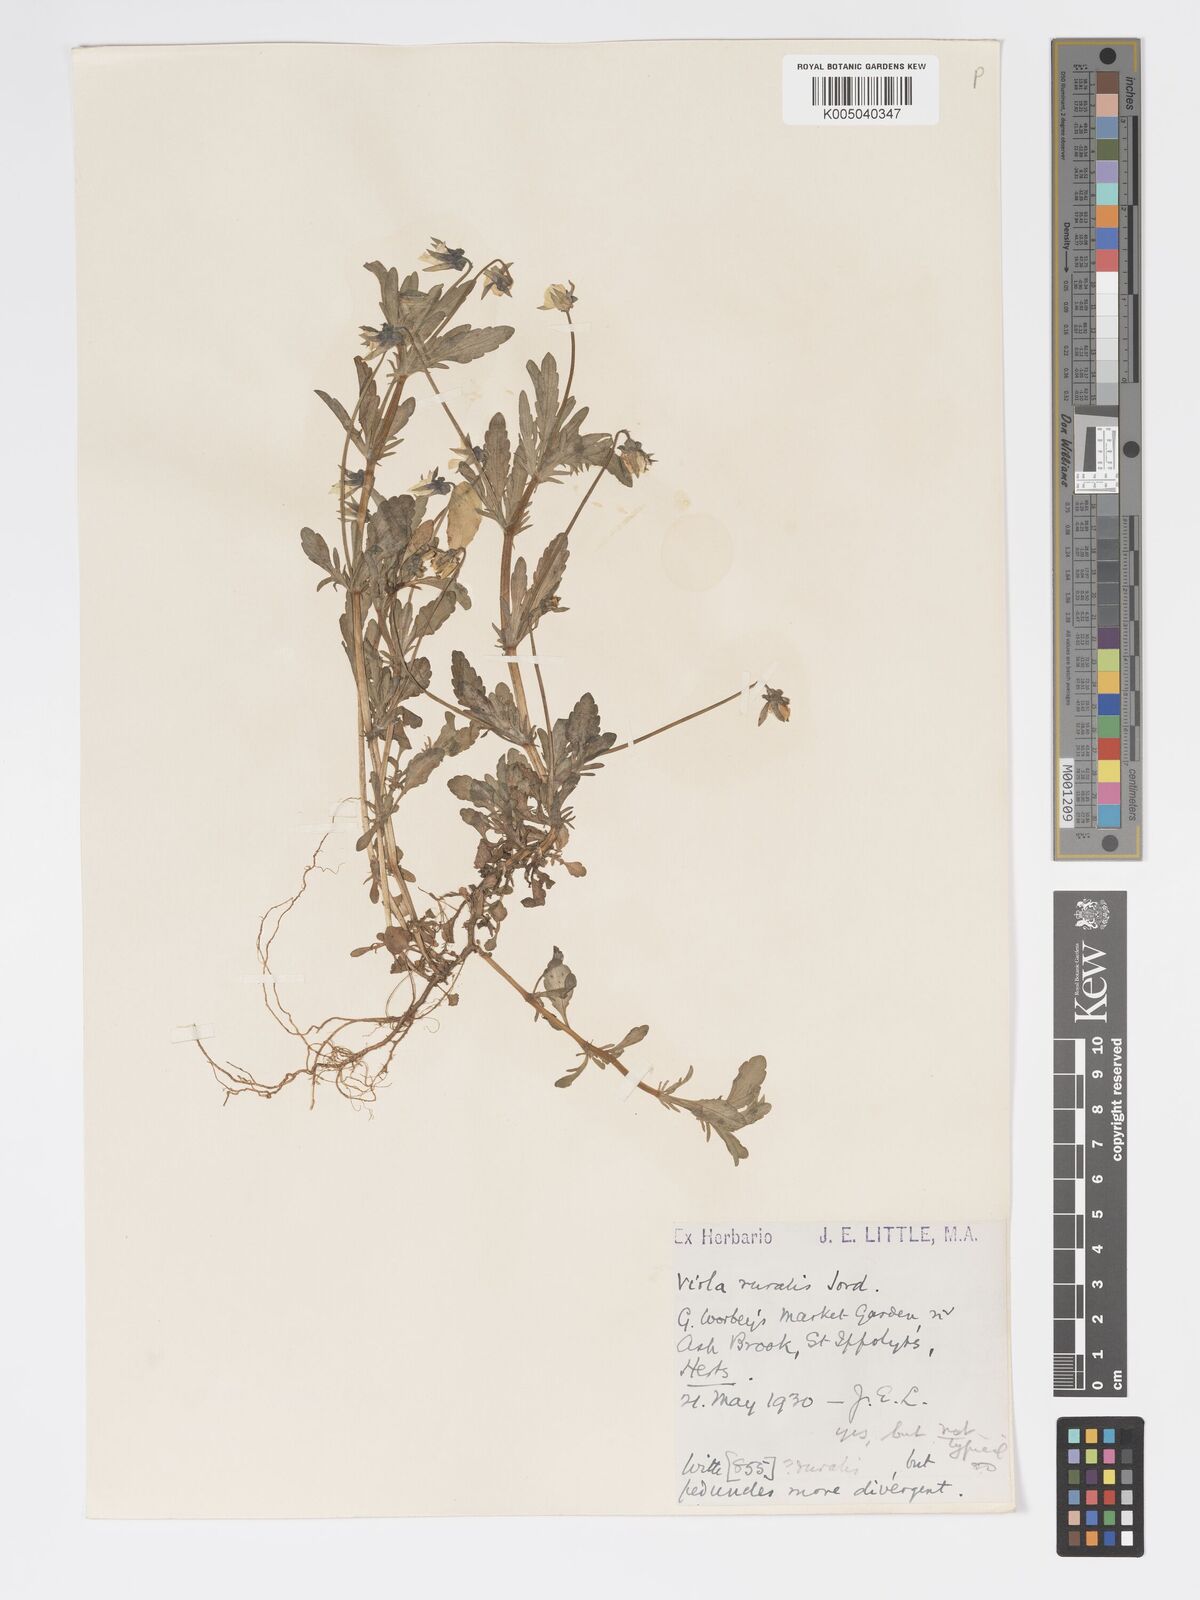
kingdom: Plantae
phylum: Tracheophyta
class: Magnoliopsida
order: Malpighiales
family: Violaceae
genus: Viola
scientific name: Viola arvensis
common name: Field pansy
